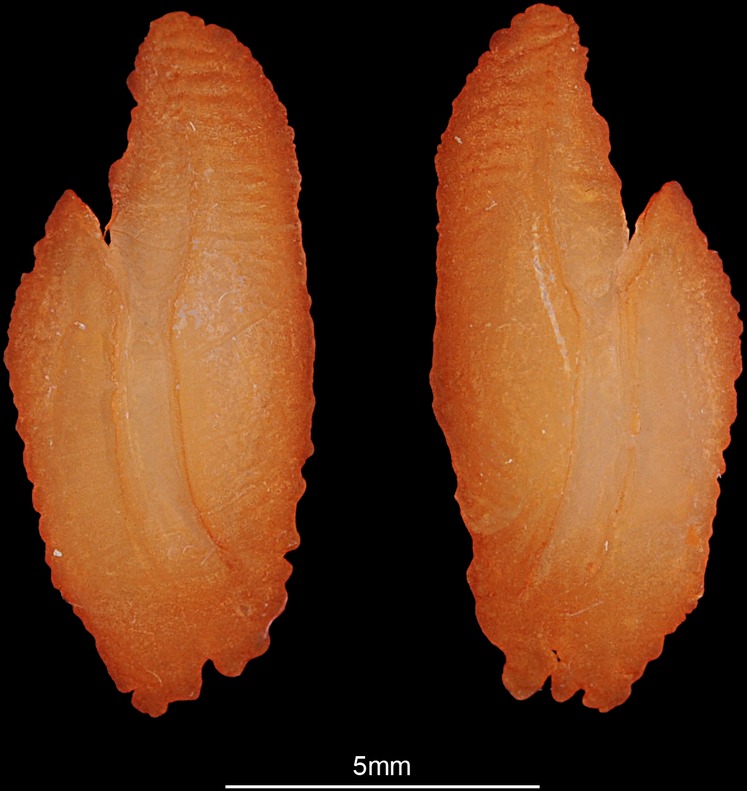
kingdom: Animalia
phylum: Chordata
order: Perciformes
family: Latidae
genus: Lates
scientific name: Lates niloticus
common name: Nile perch
